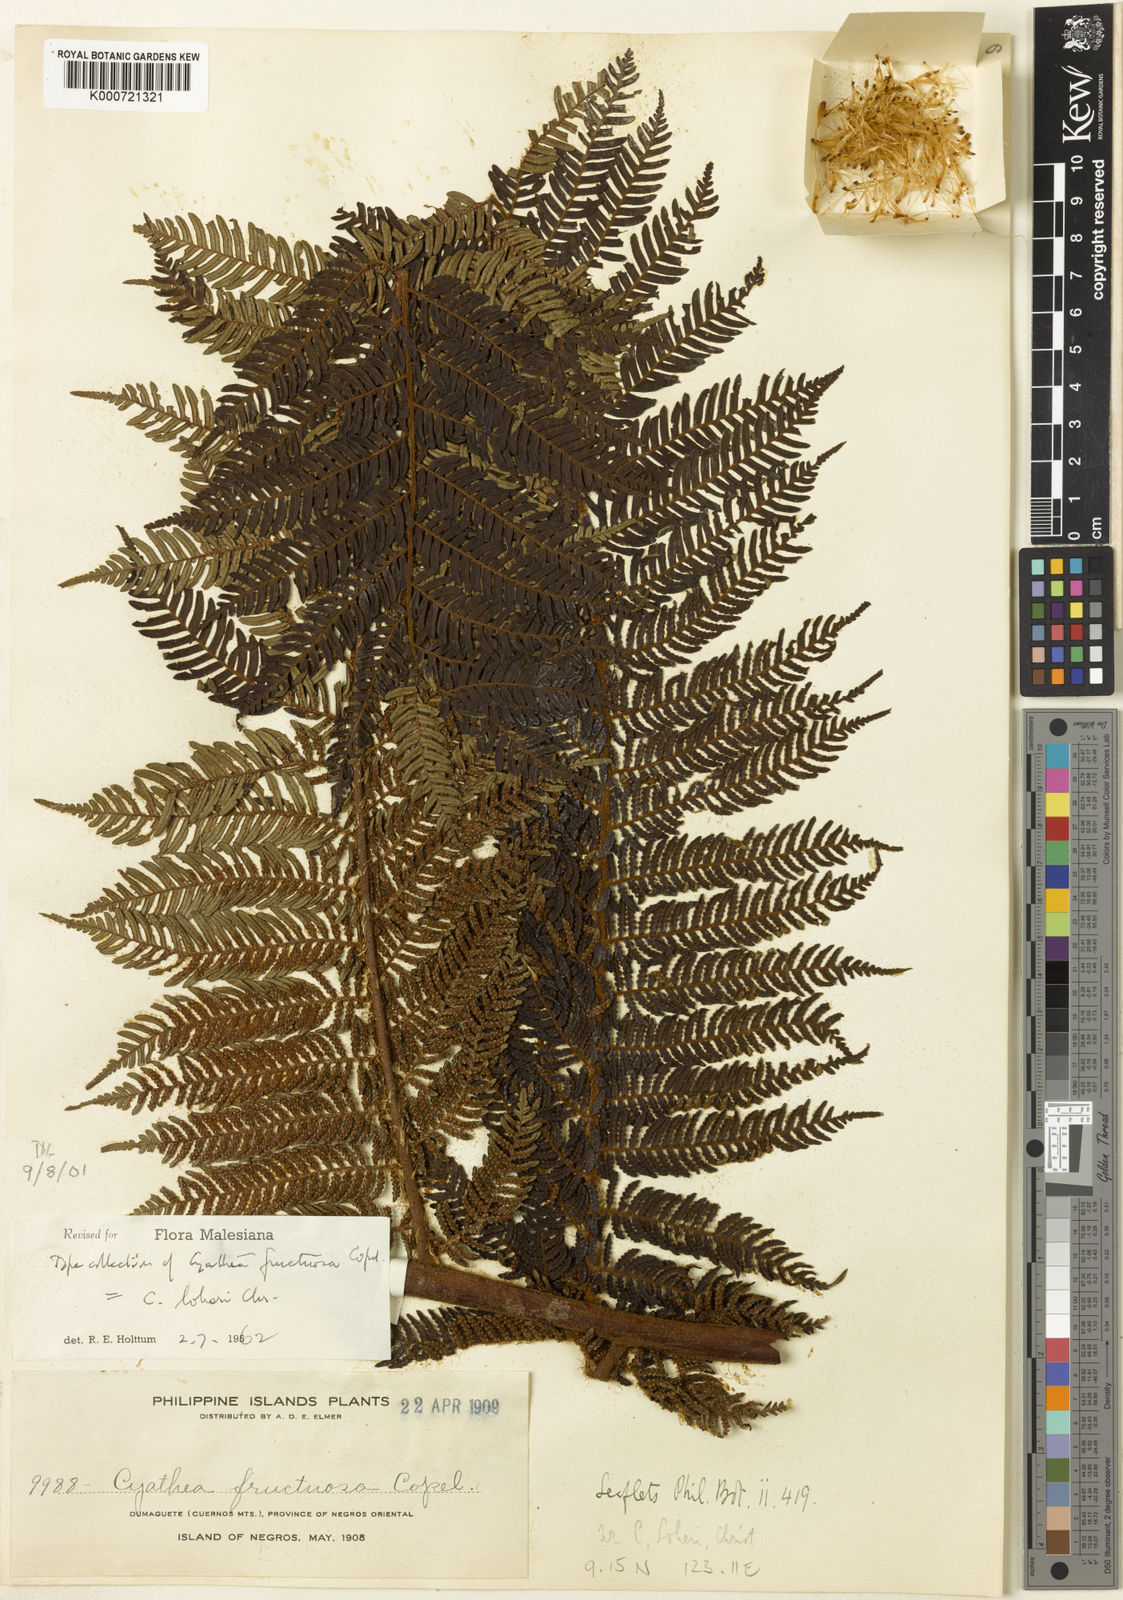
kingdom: Plantae
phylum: Tracheophyta
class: Polypodiopsida
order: Cyatheales
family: Cyatheaceae
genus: Alsophila
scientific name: Alsophila loheri
